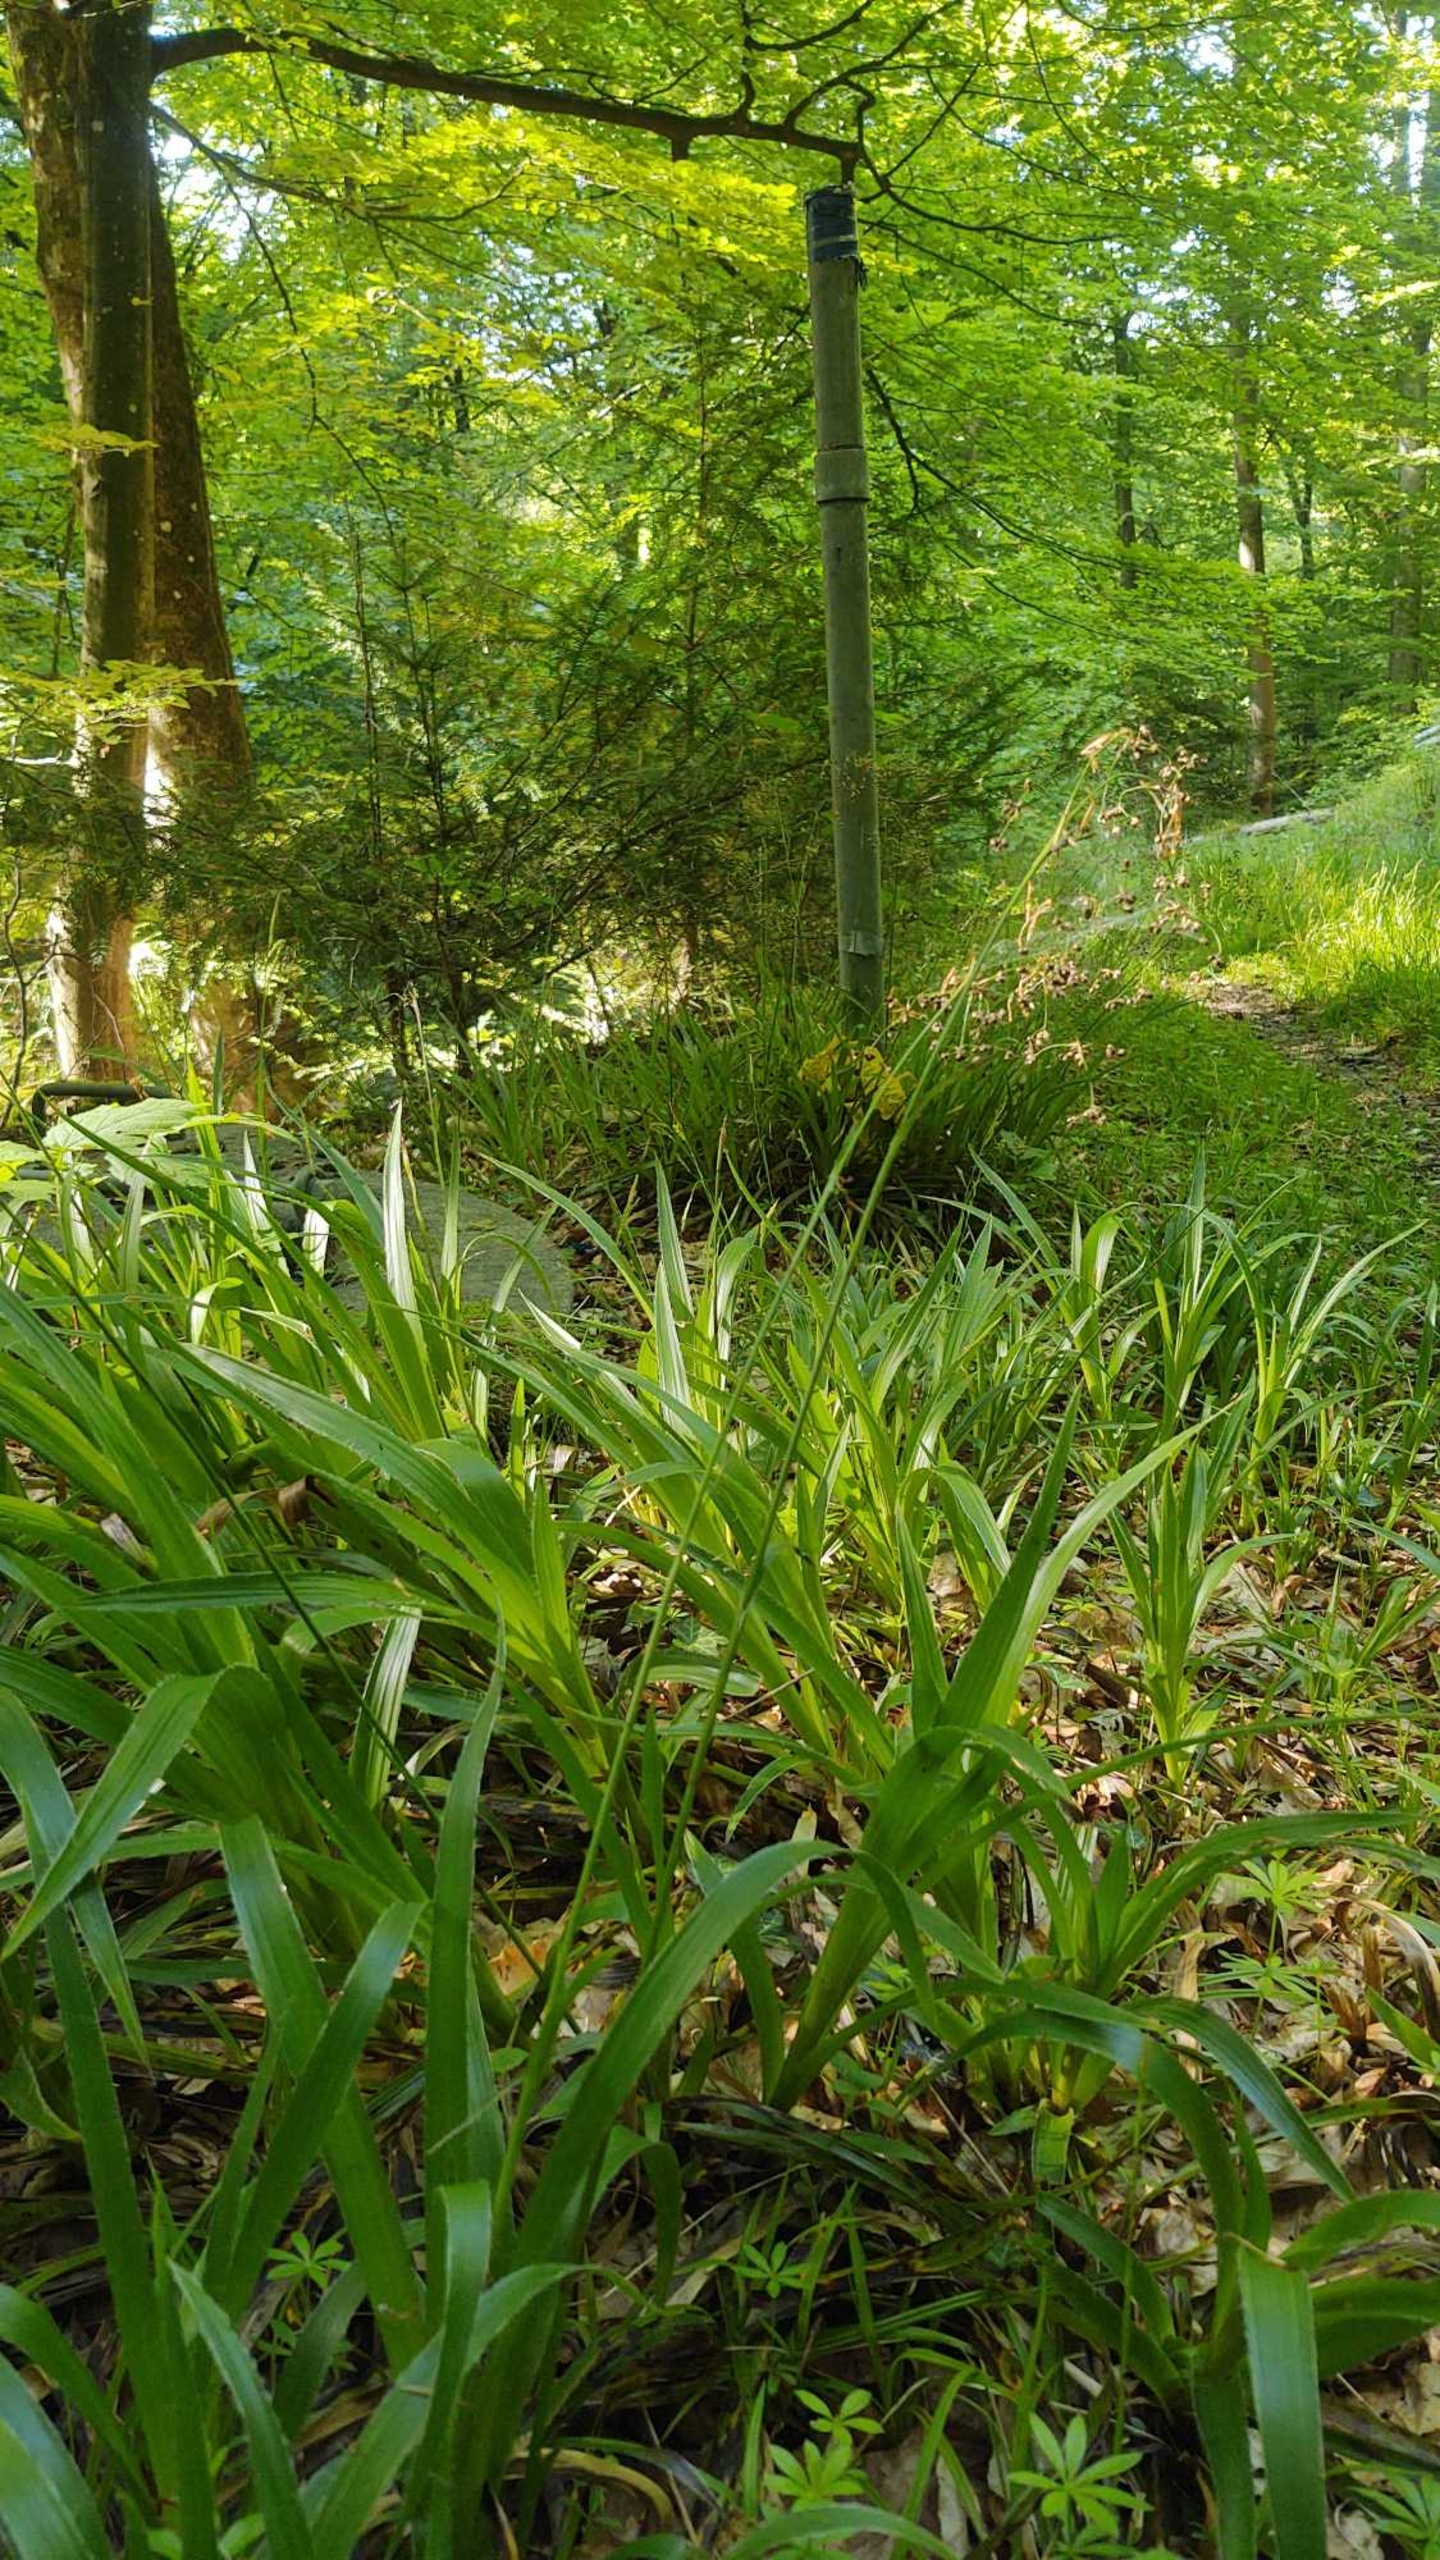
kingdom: Plantae
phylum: Tracheophyta
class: Liliopsida
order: Poales
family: Juncaceae
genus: Luzula
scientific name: Luzula sylvatica
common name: Stor frytle
